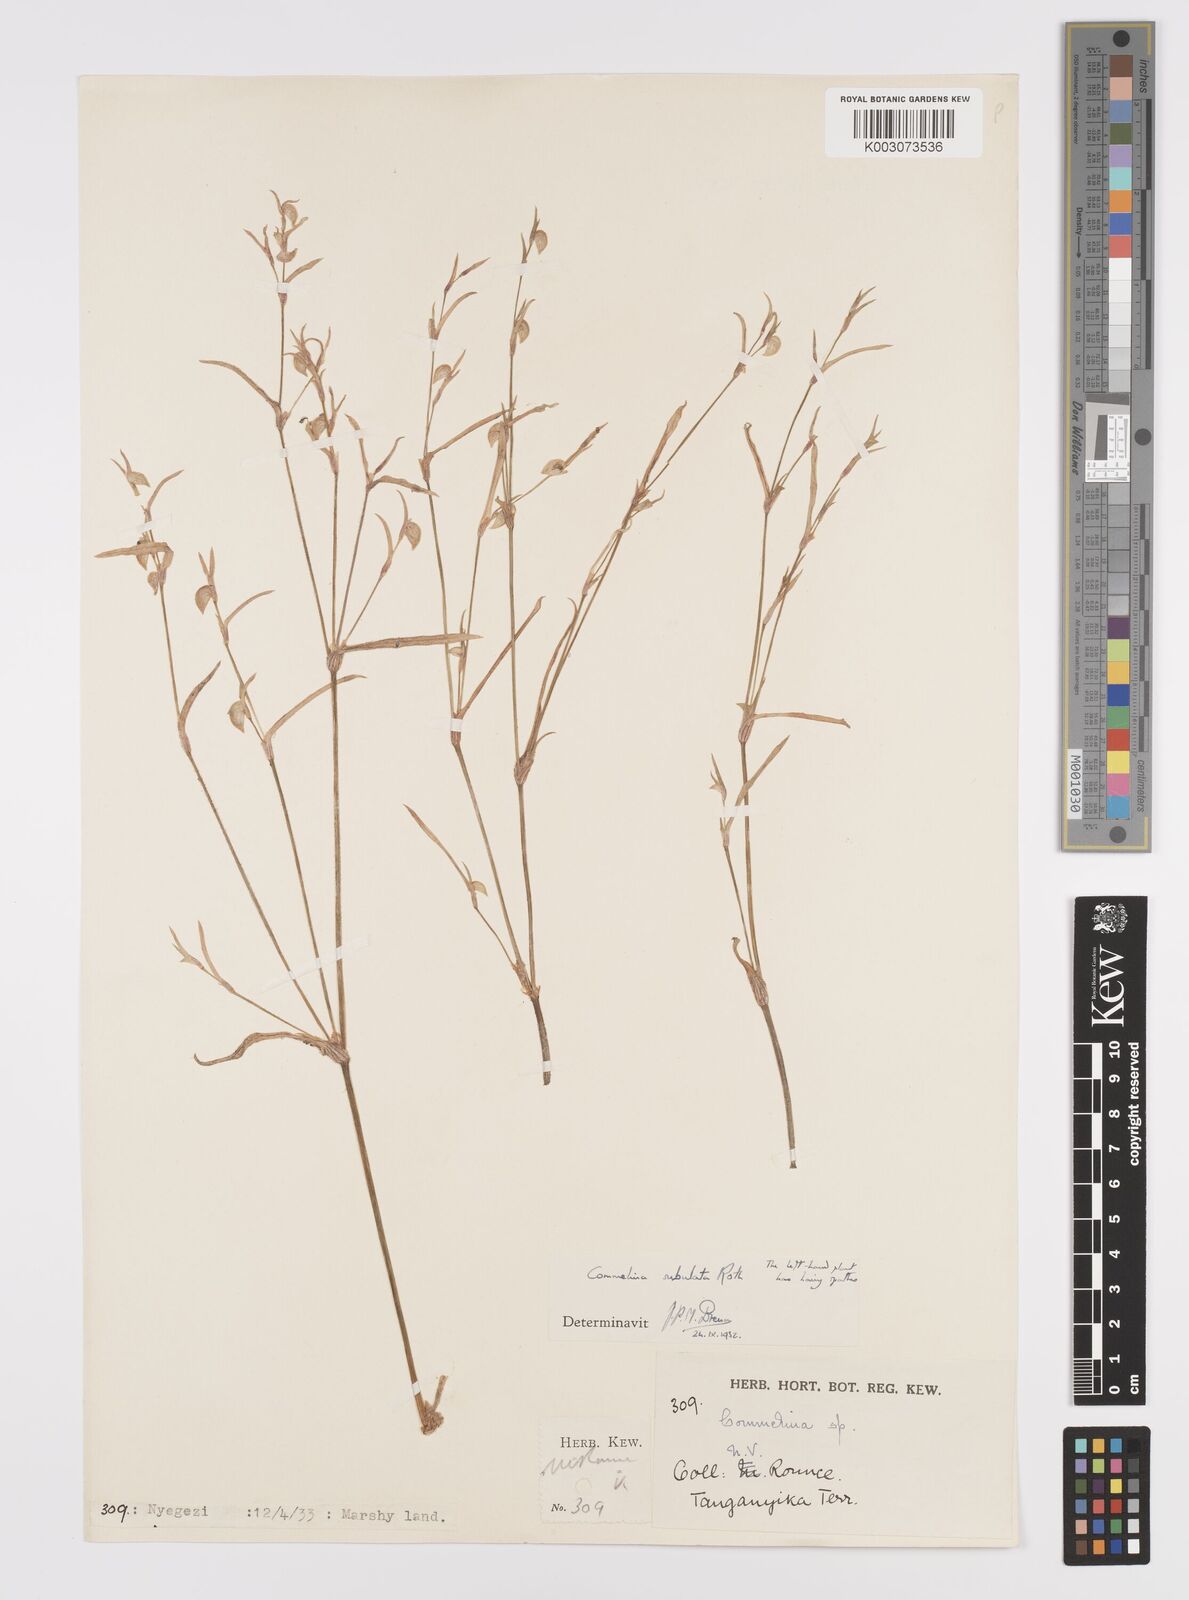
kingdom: Plantae
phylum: Tracheophyta
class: Liliopsida
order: Commelinales
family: Commelinaceae
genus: Commelina
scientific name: Commelina subulata
